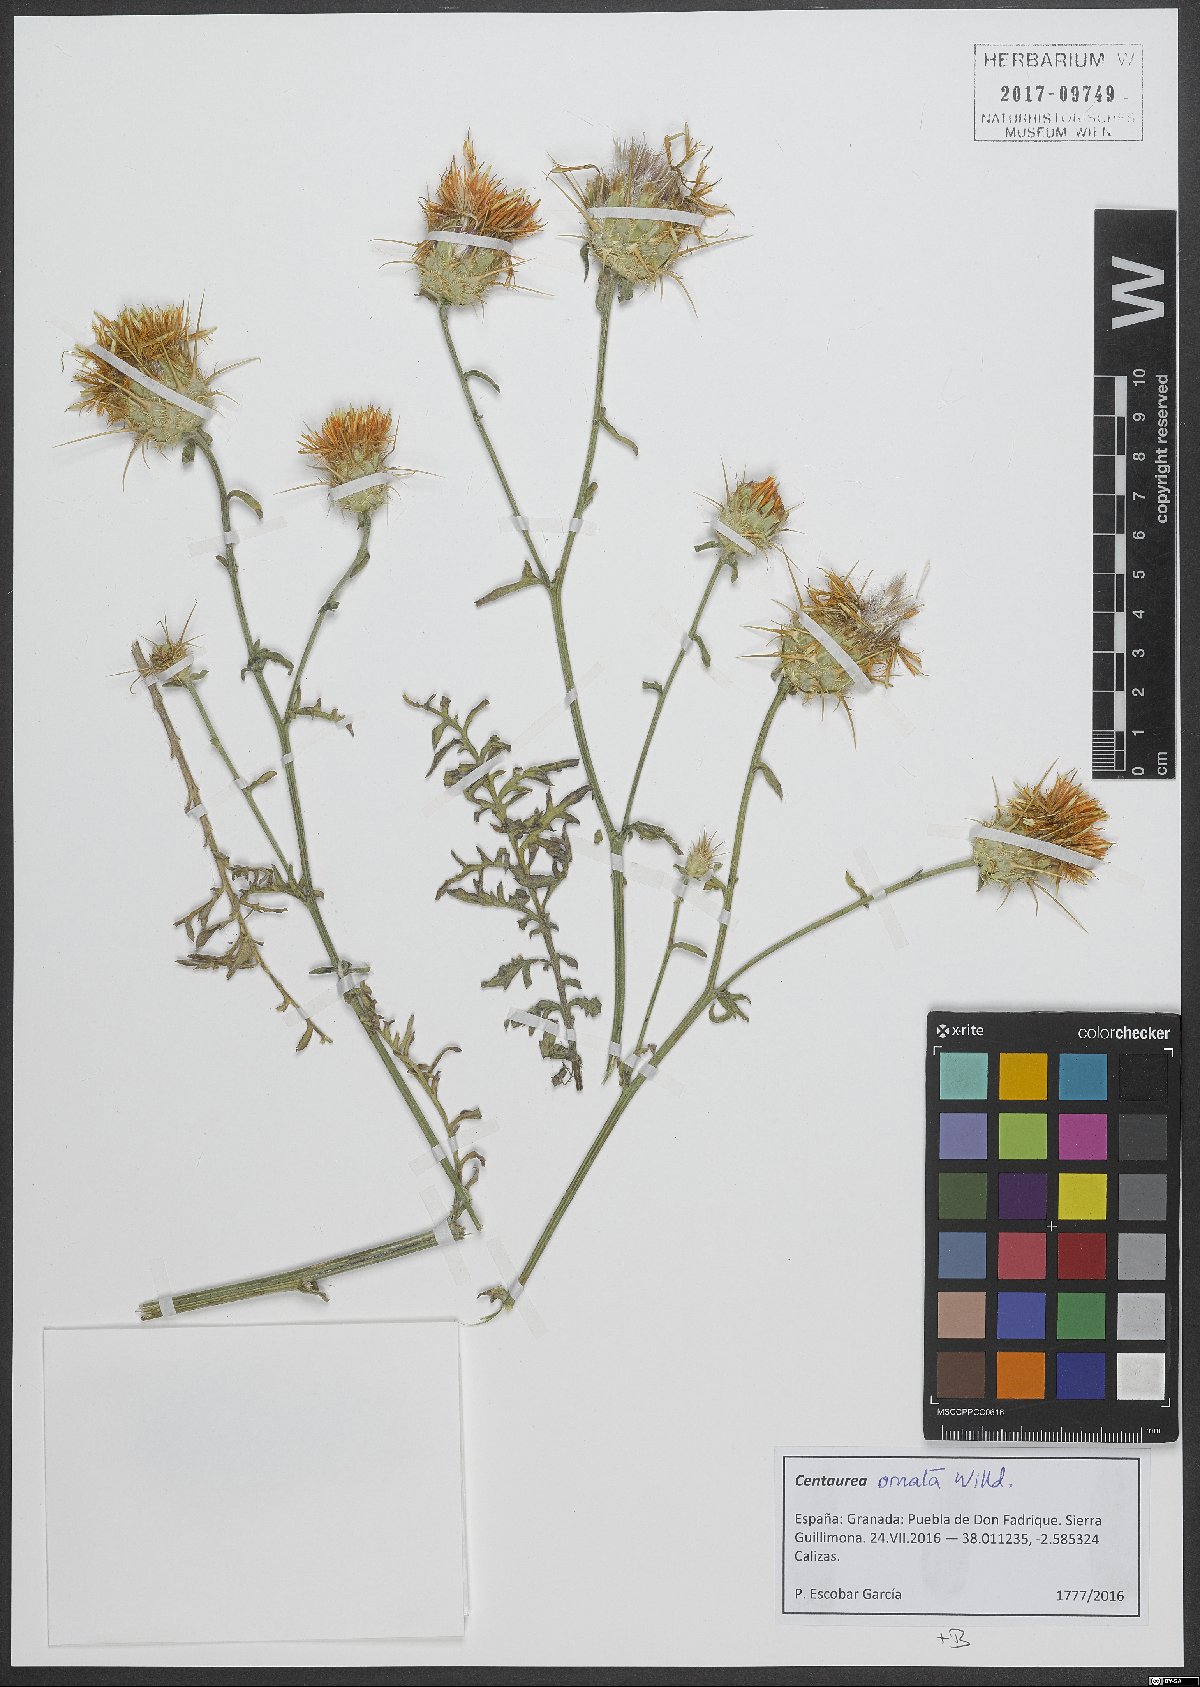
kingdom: Plantae
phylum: Tracheophyta
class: Magnoliopsida
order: Asterales
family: Asteraceae
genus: Centaurea
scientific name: Centaurea ornata
